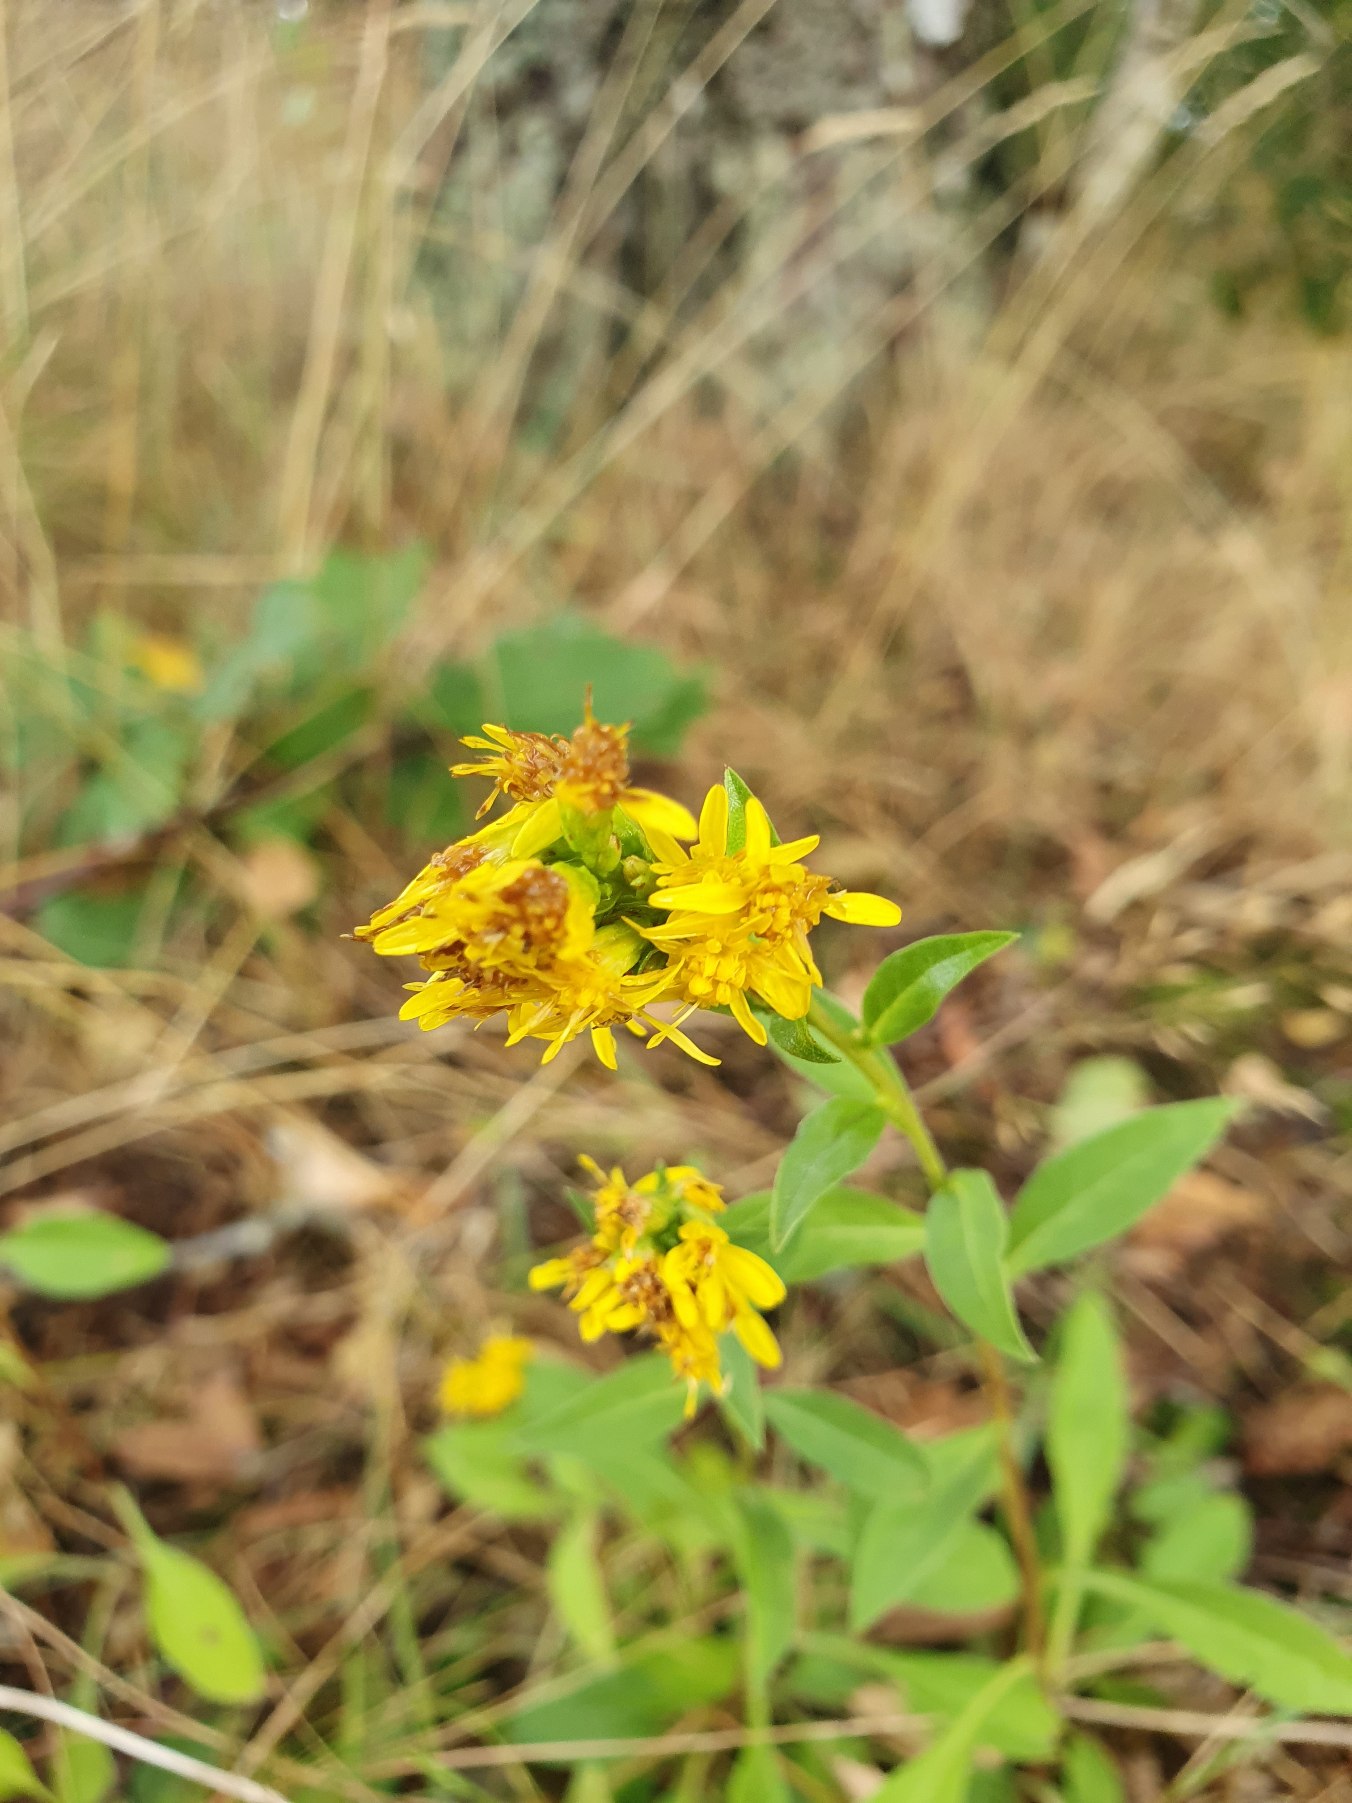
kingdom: Plantae
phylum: Tracheophyta
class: Magnoliopsida
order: Asterales
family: Asteraceae
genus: Solidago
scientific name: Solidago virgaurea
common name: Almindelig gyldenris
